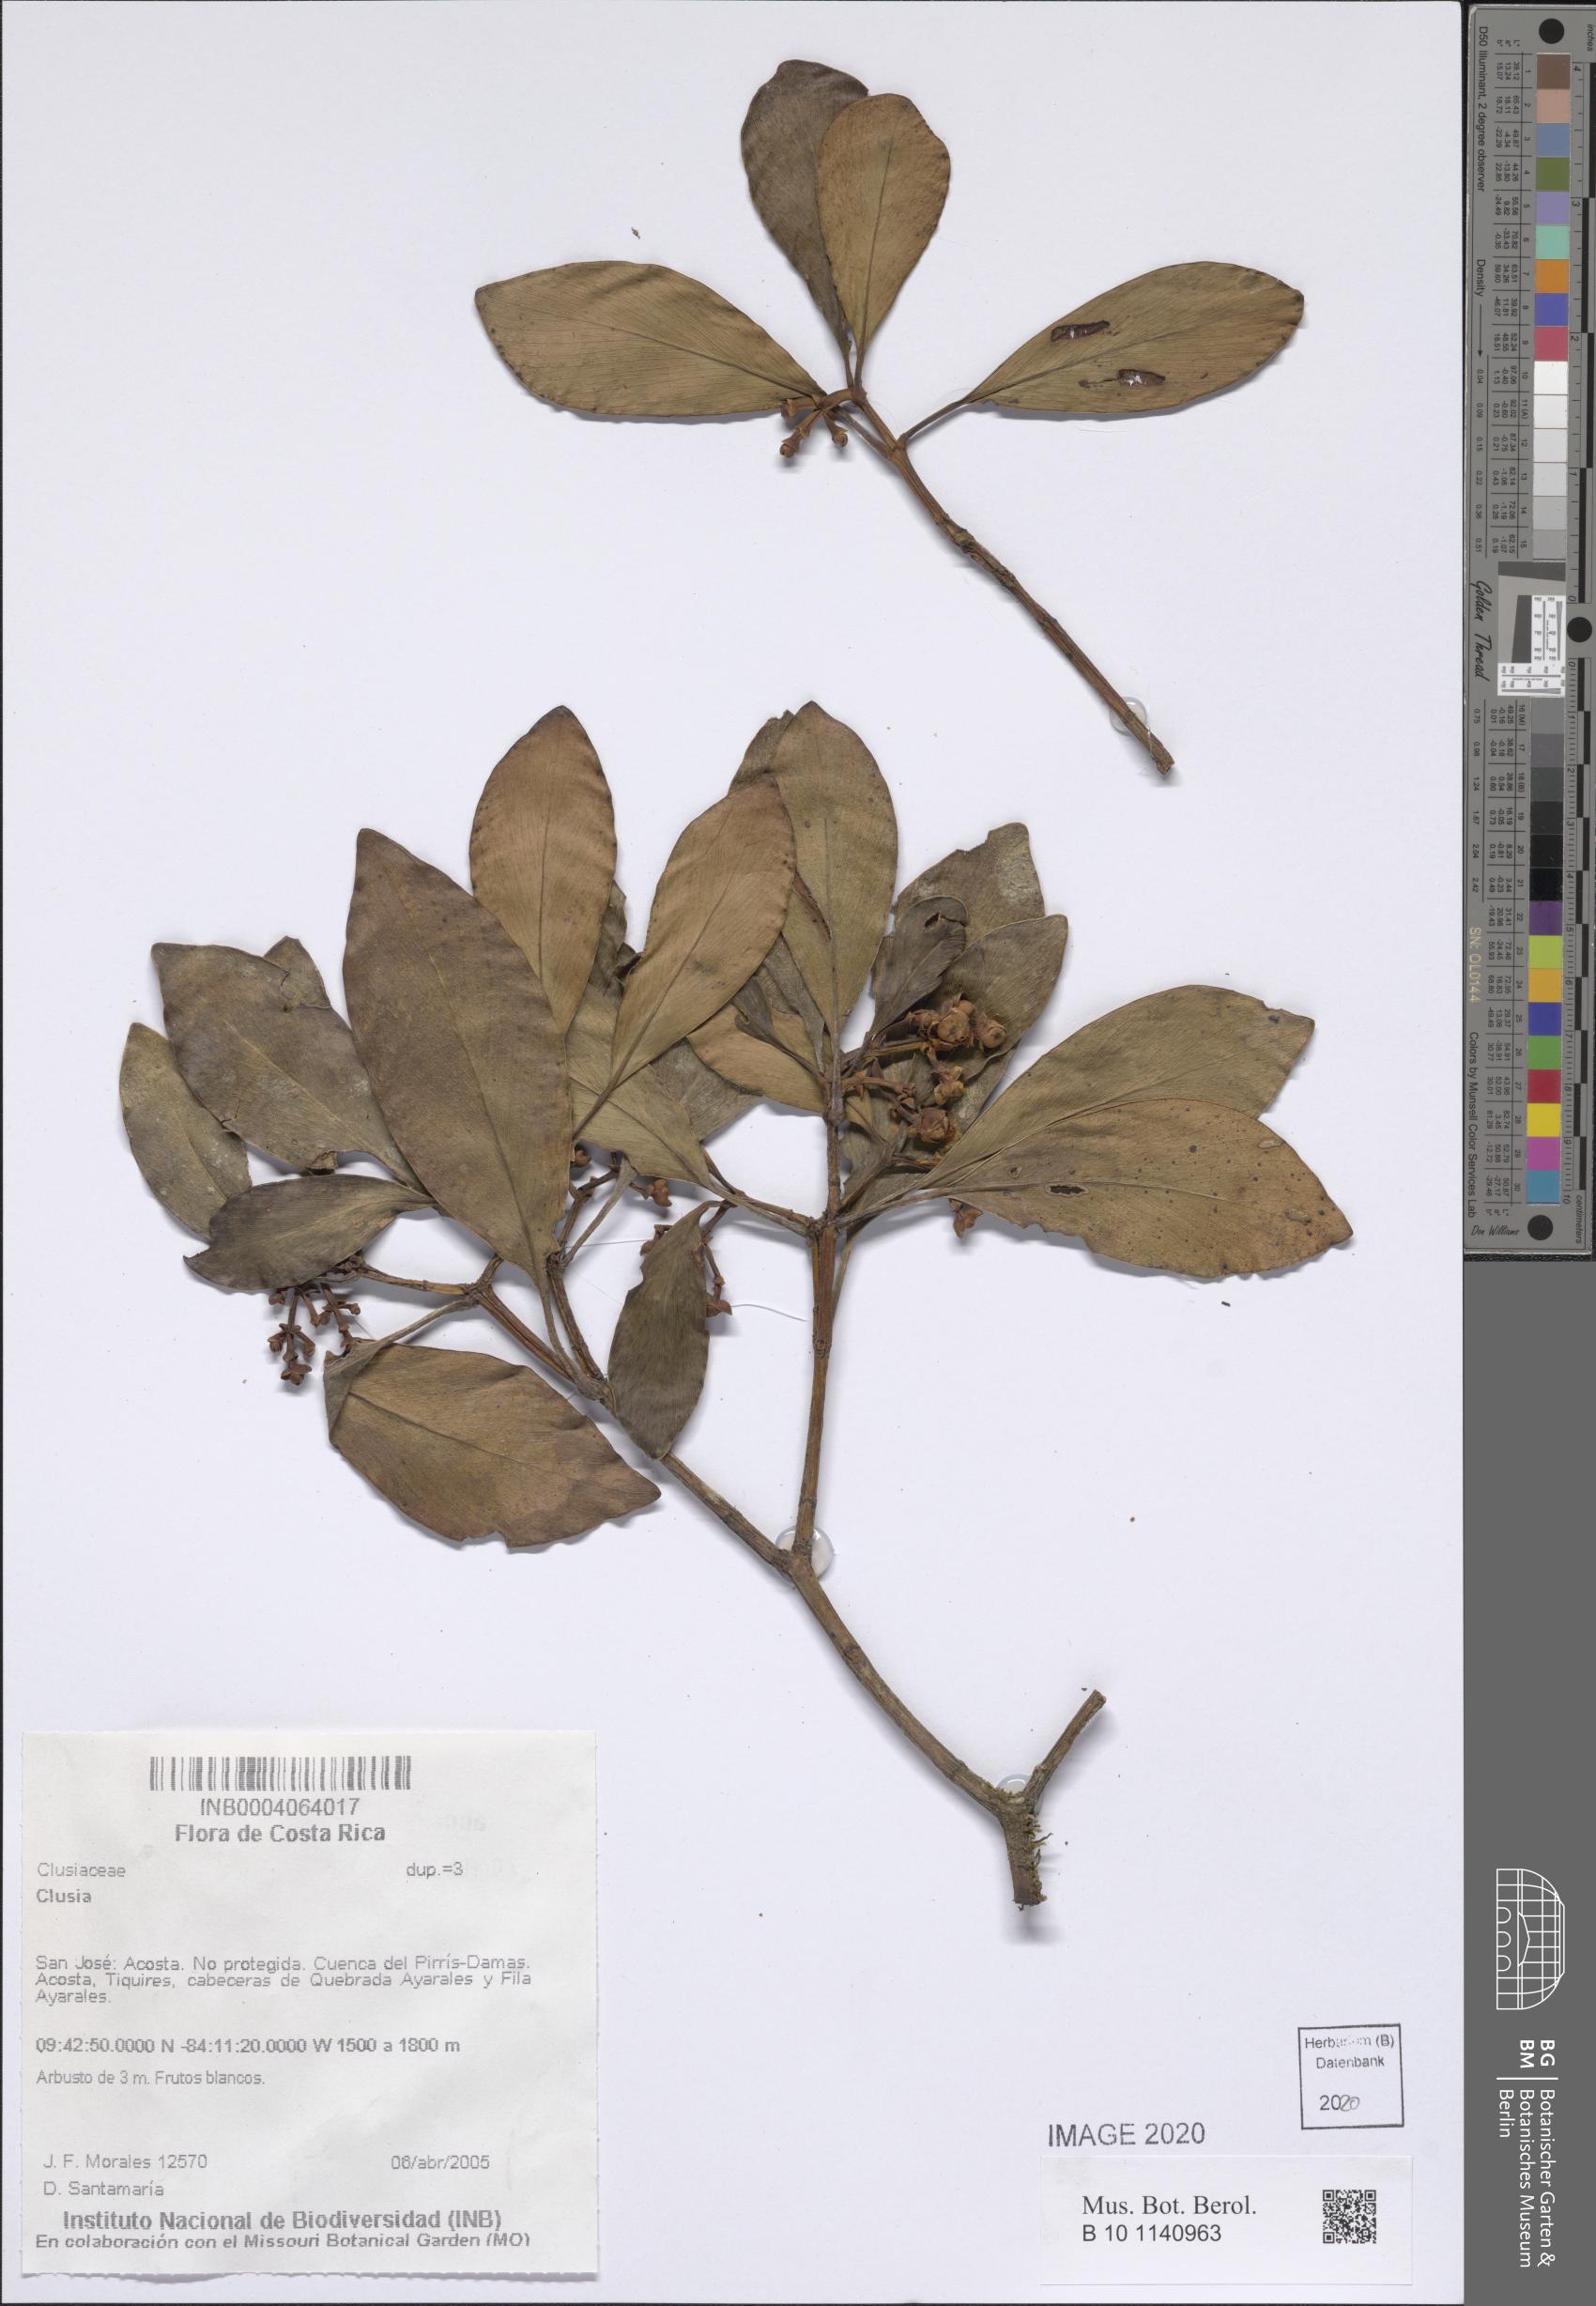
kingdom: Plantae
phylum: Tracheophyta
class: Magnoliopsida
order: Malpighiales
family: Clusiaceae
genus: Clusia
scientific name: Clusia
